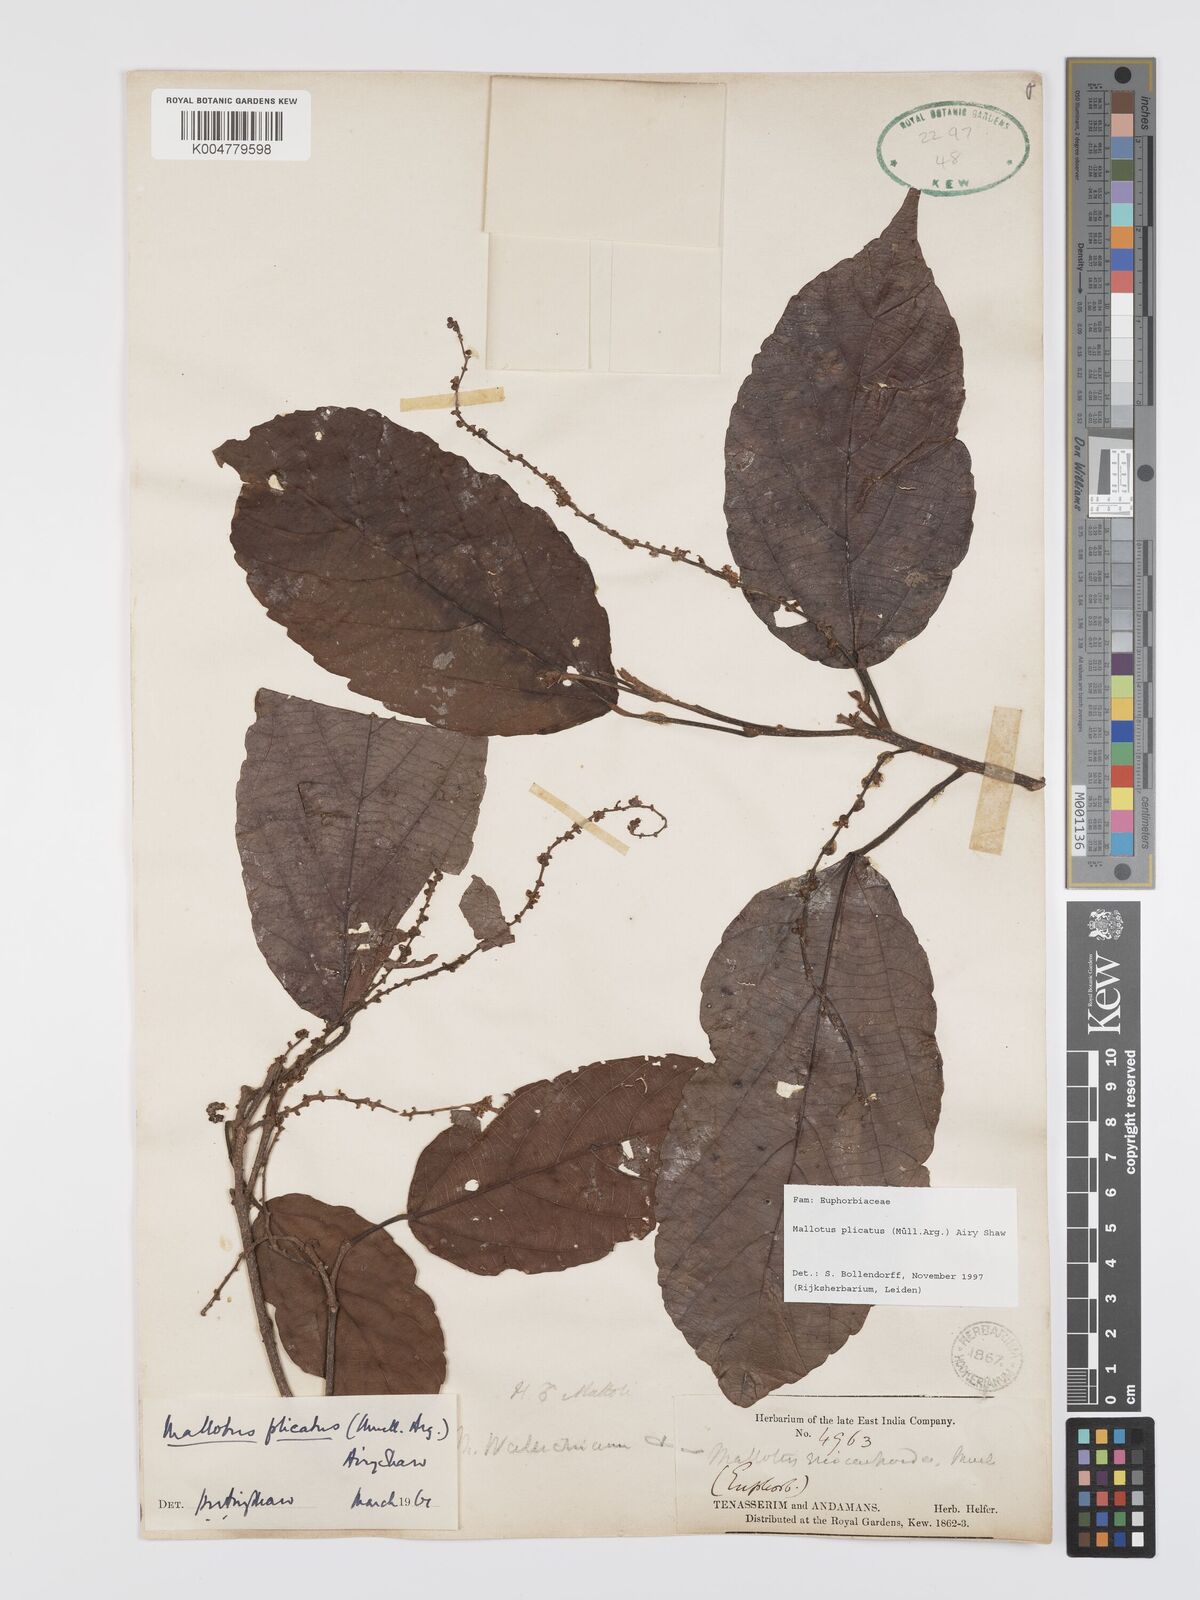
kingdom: Plantae
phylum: Tracheophyta
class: Magnoliopsida
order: Malpighiales
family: Euphorbiaceae
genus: Mallotus
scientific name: Mallotus plicatus
